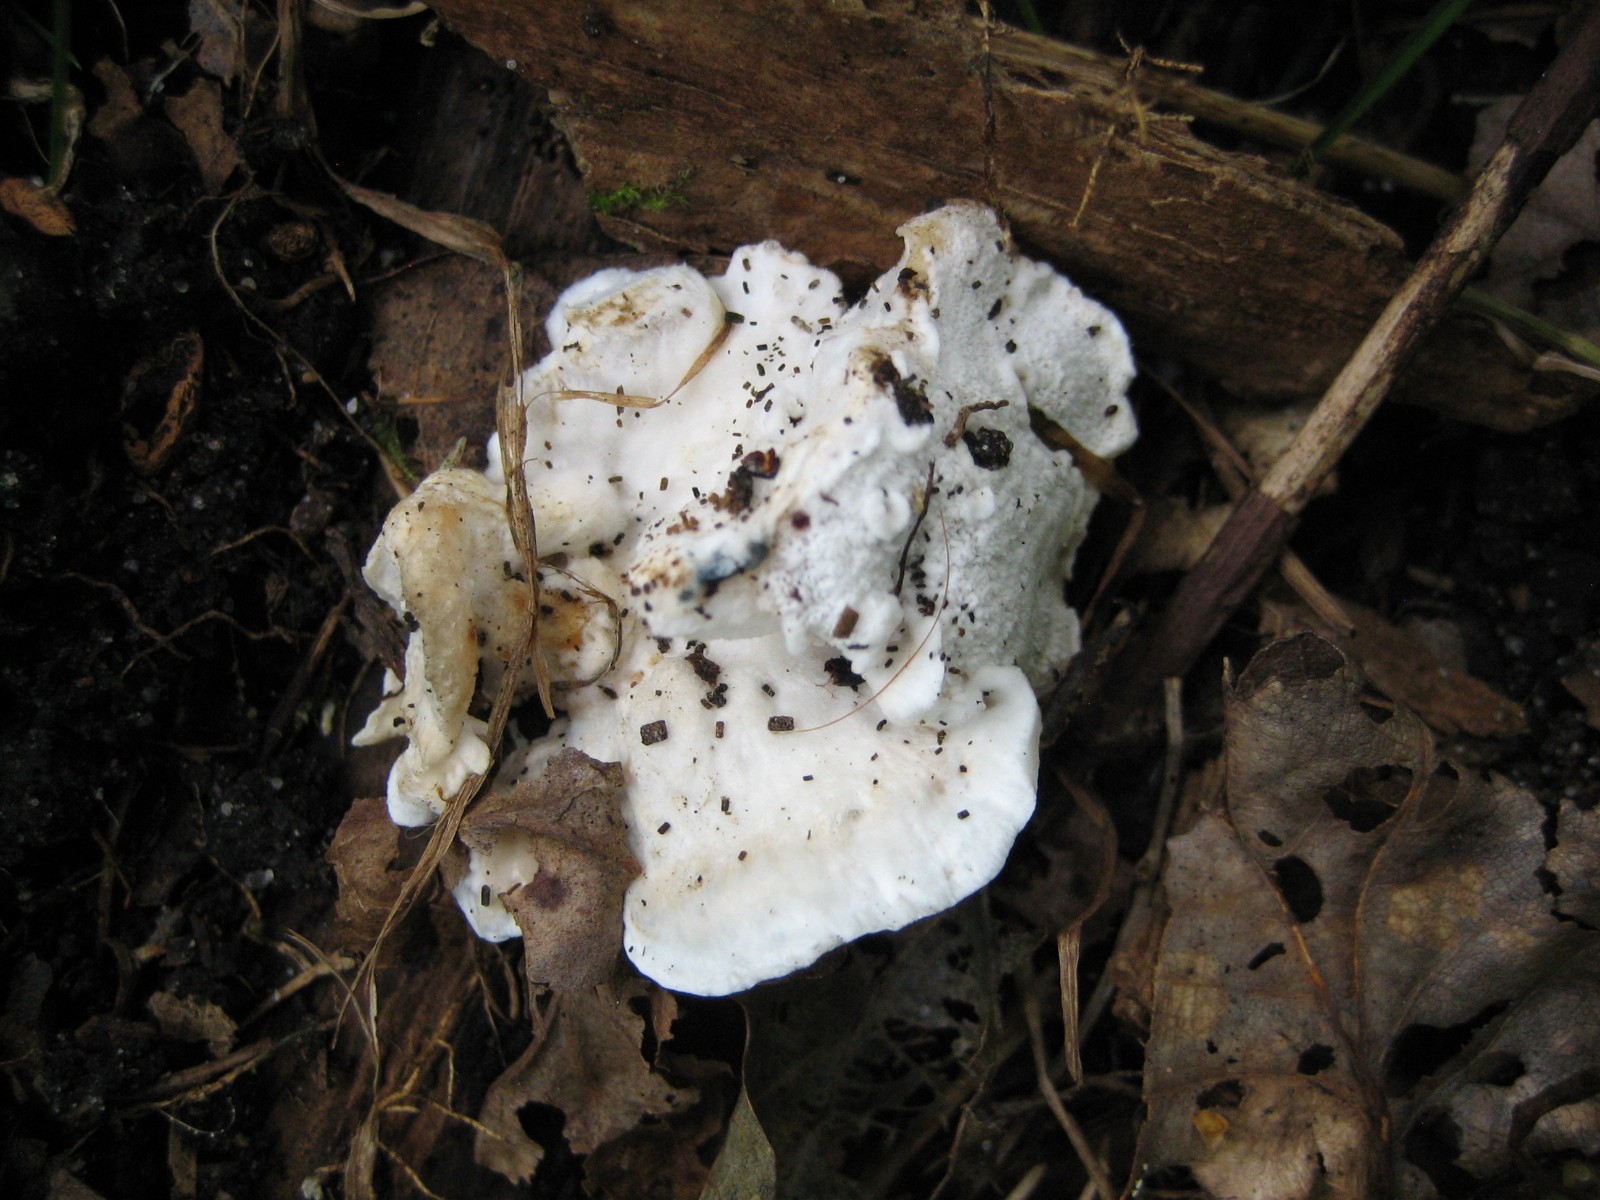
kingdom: Fungi
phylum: Basidiomycota
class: Agaricomycetes
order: Polyporales
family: Incrustoporiaceae
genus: Tyromyces
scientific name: Tyromyces lacteus
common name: mælkehvid kødporesvamp
